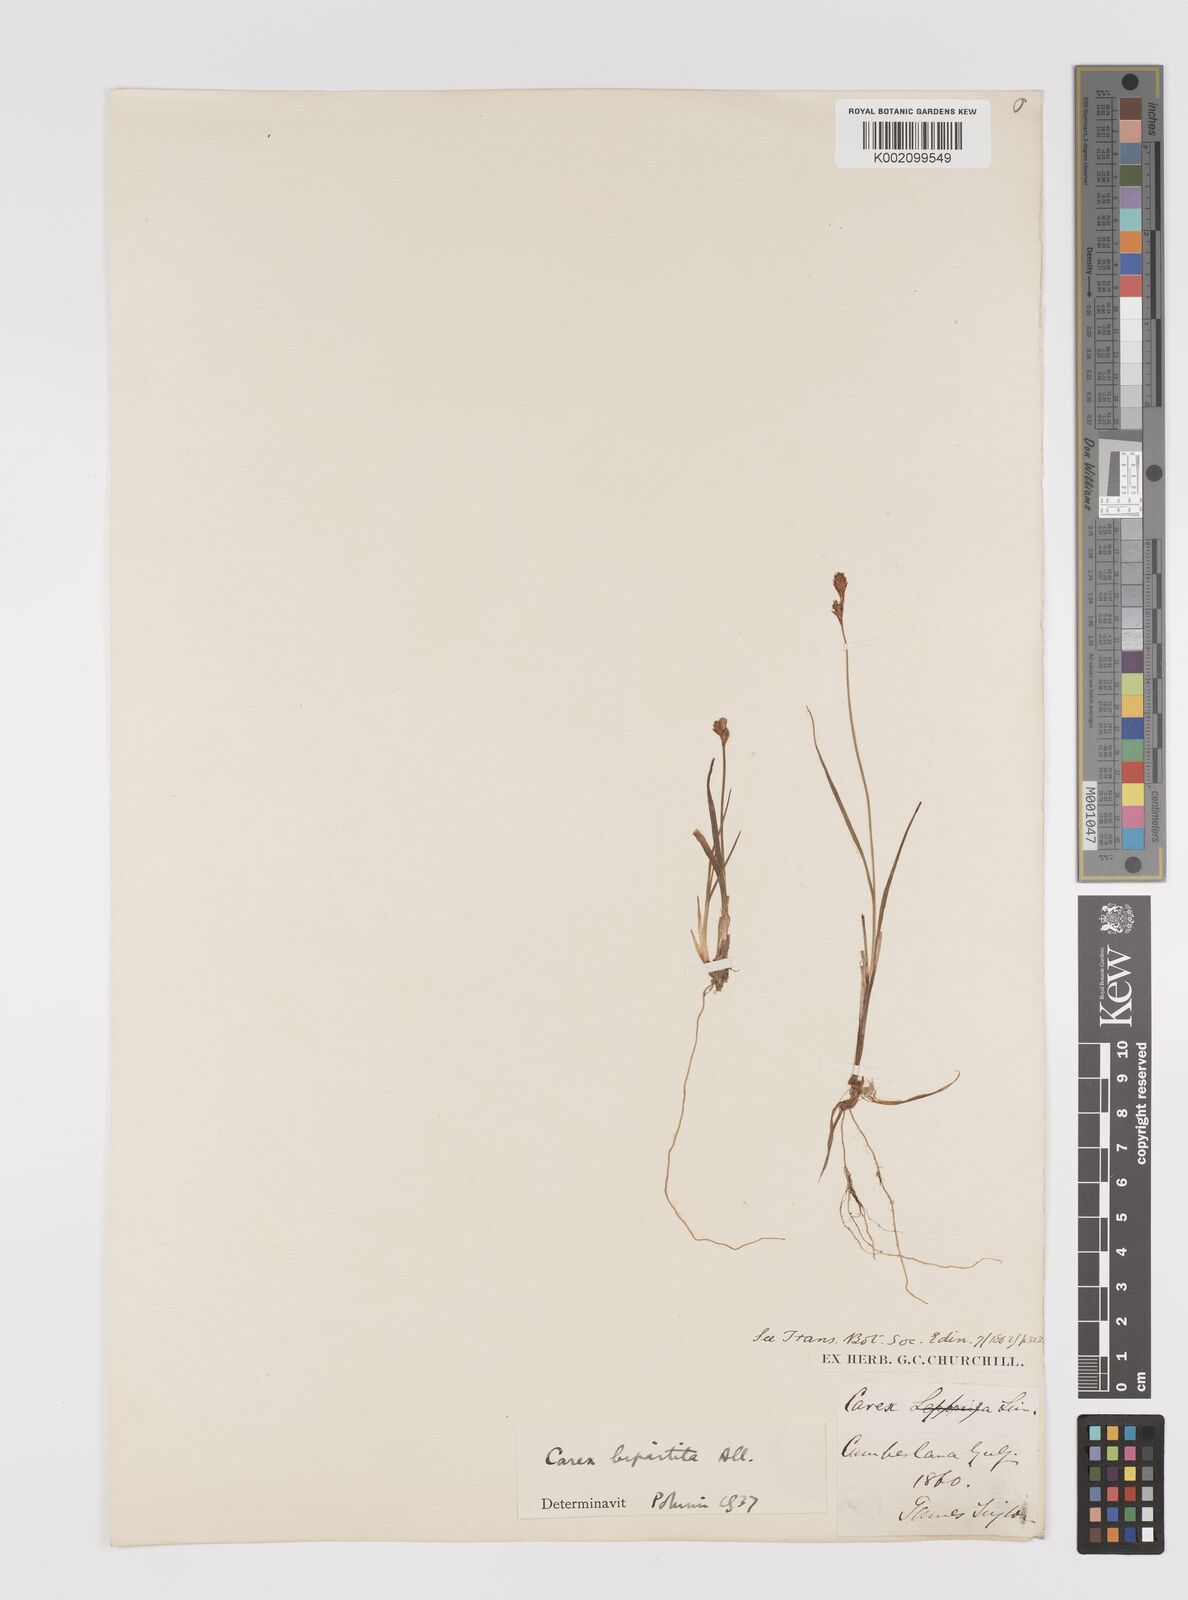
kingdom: Plantae
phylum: Tracheophyta
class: Liliopsida
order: Poales
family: Cyperaceae
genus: Carex
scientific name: Carex lachenalii
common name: Hare's-foot sedge
